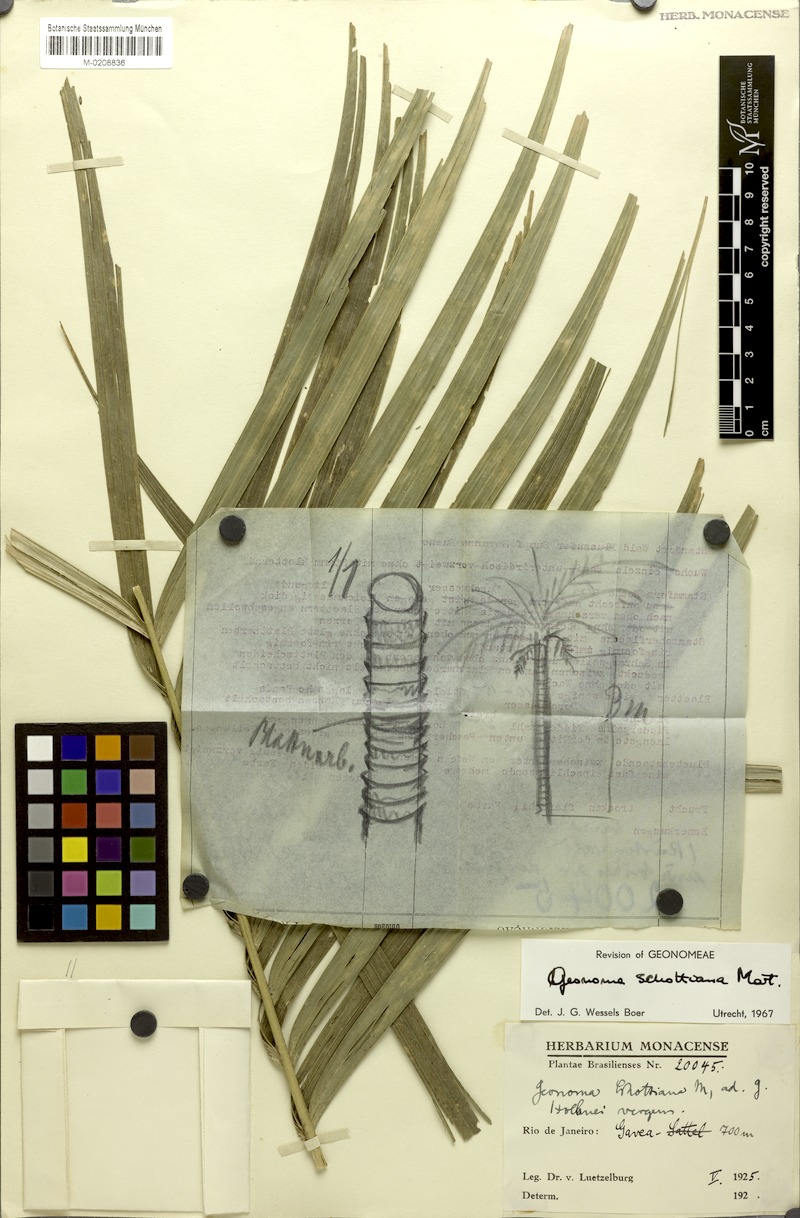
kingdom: Plantae
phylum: Tracheophyta
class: Liliopsida
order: Arecales
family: Arecaceae
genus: Geonoma
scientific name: Geonoma schottiana
